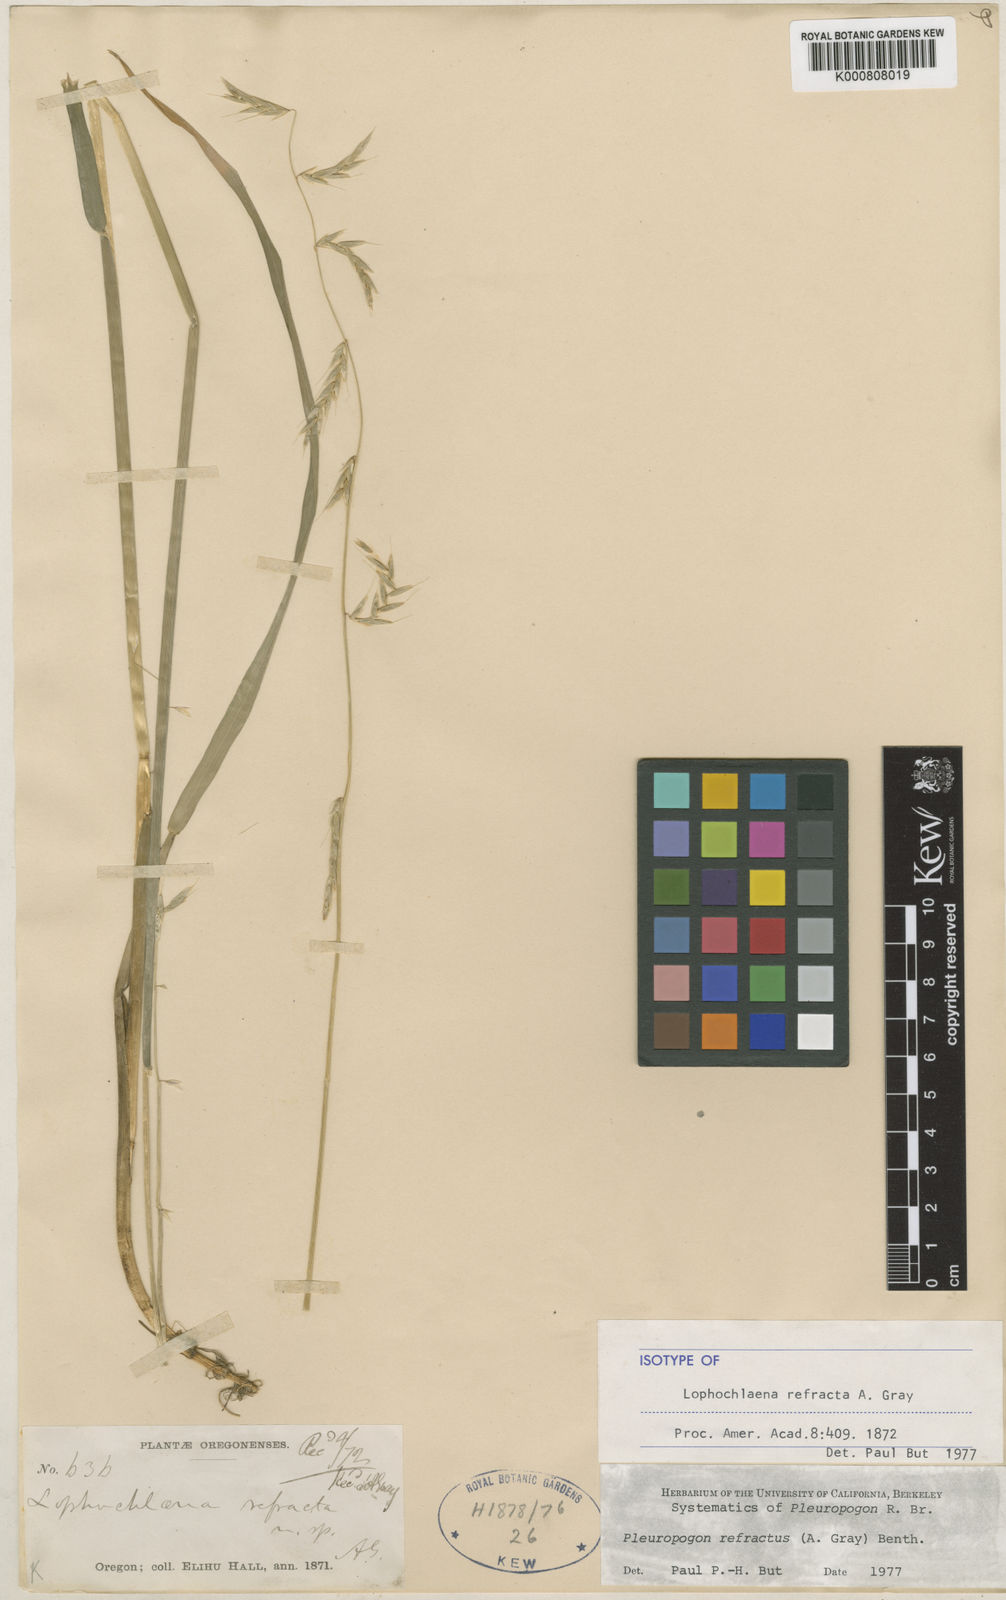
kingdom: Plantae
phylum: Tracheophyta
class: Liliopsida
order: Poales
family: Poaceae
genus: Pleuropogon
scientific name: Pleuropogon refractus
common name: Nodding false semaphoregrass
